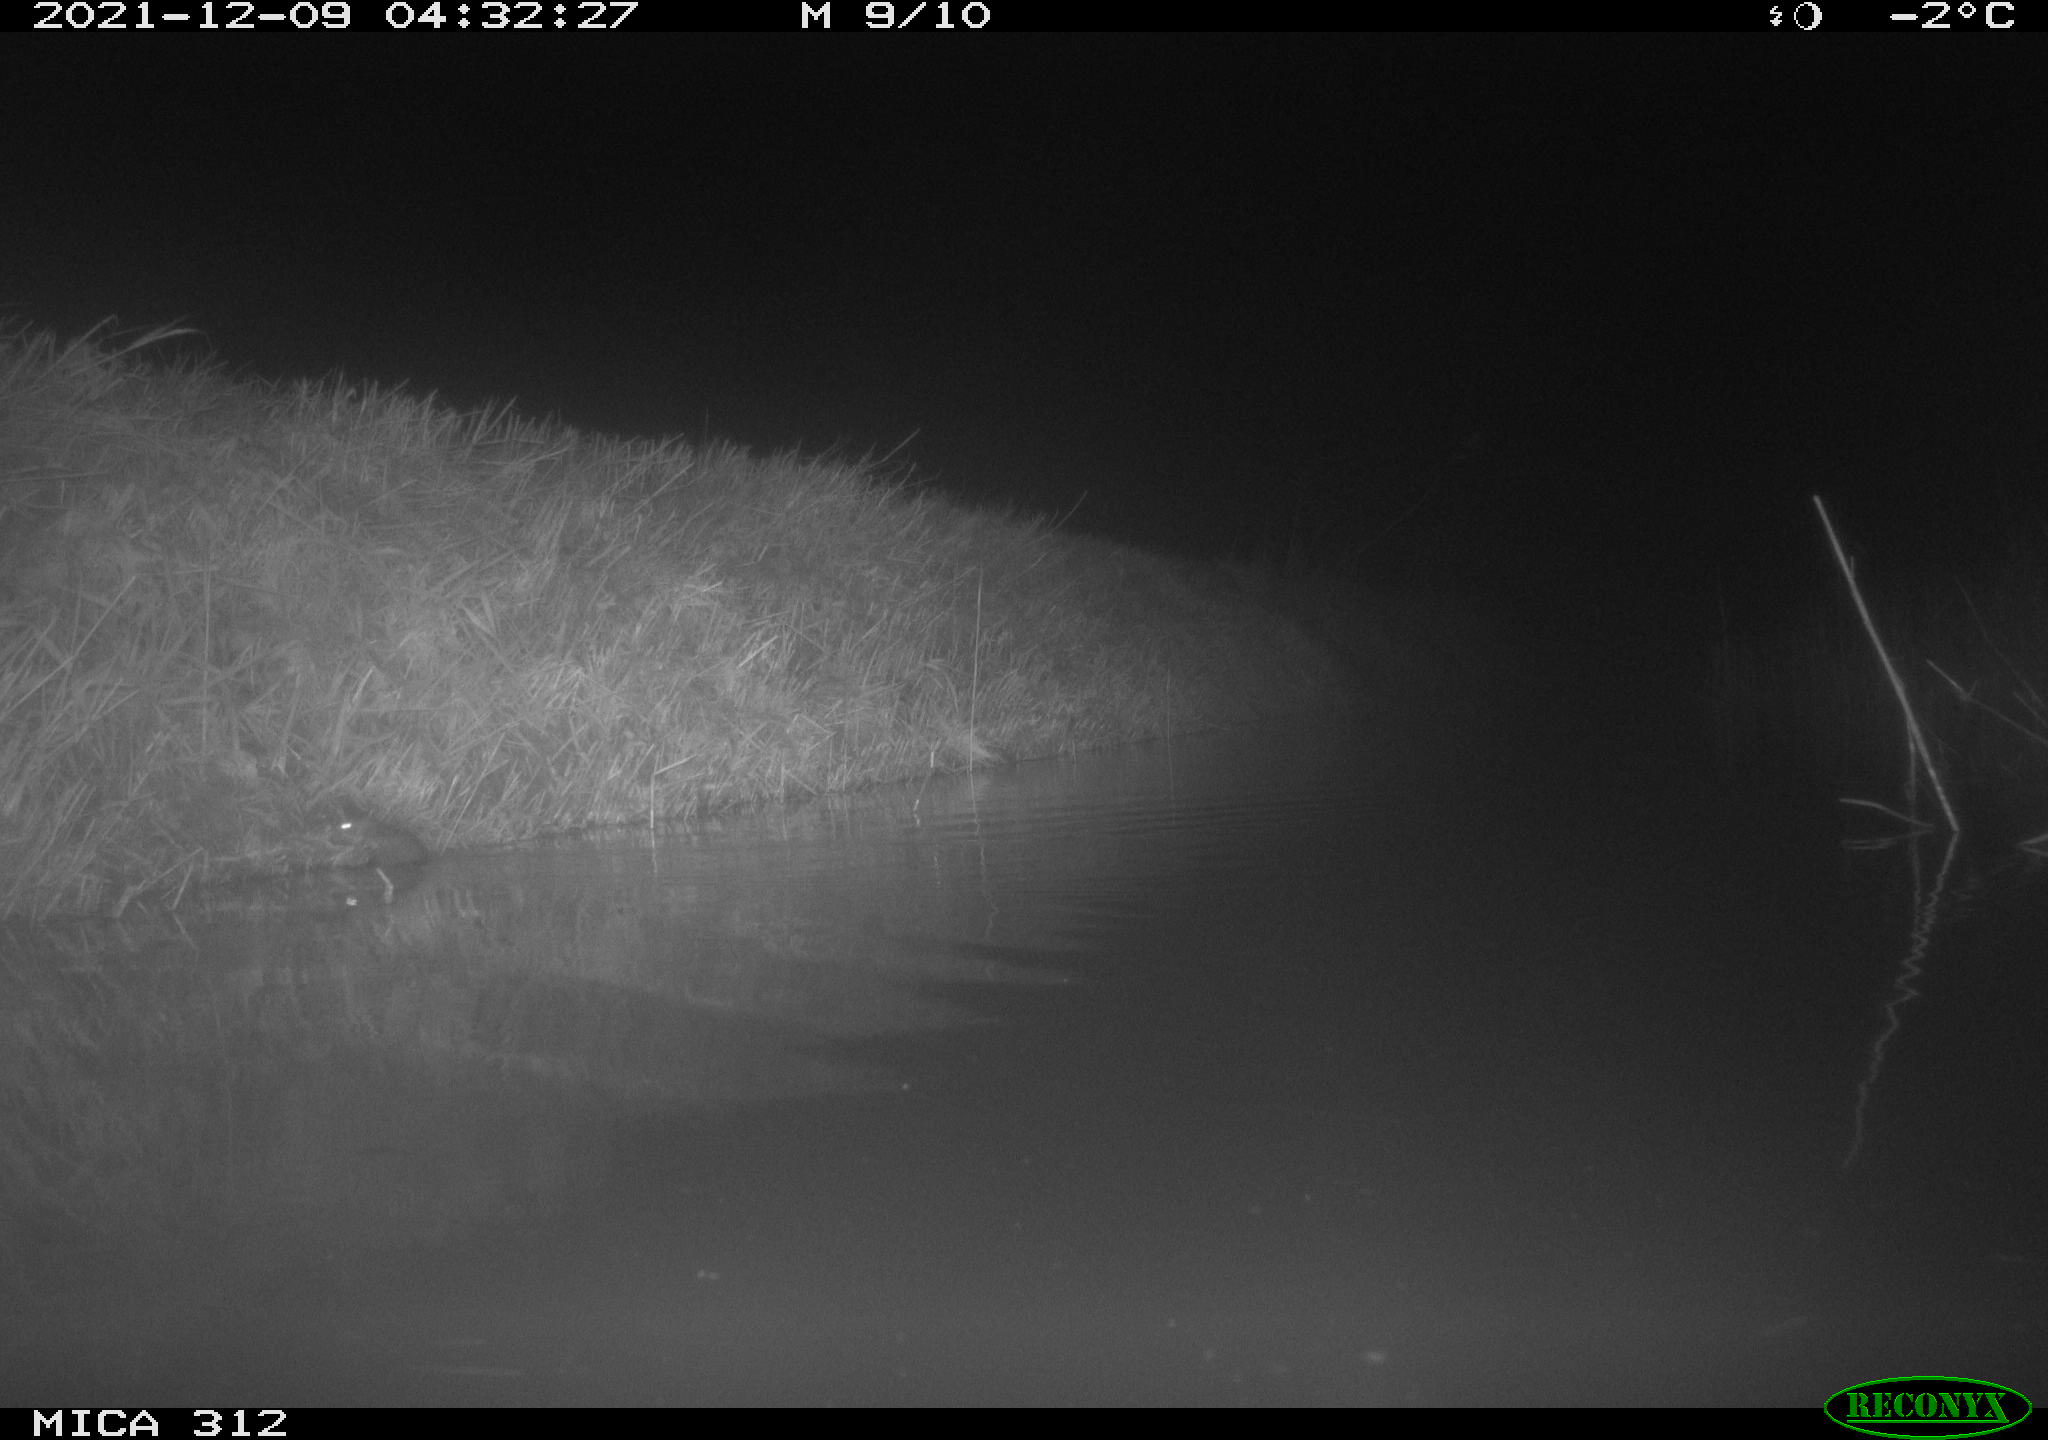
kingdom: Animalia
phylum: Chordata
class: Mammalia
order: Rodentia
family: Muridae
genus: Rattus
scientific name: Rattus norvegicus
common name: Brown rat
